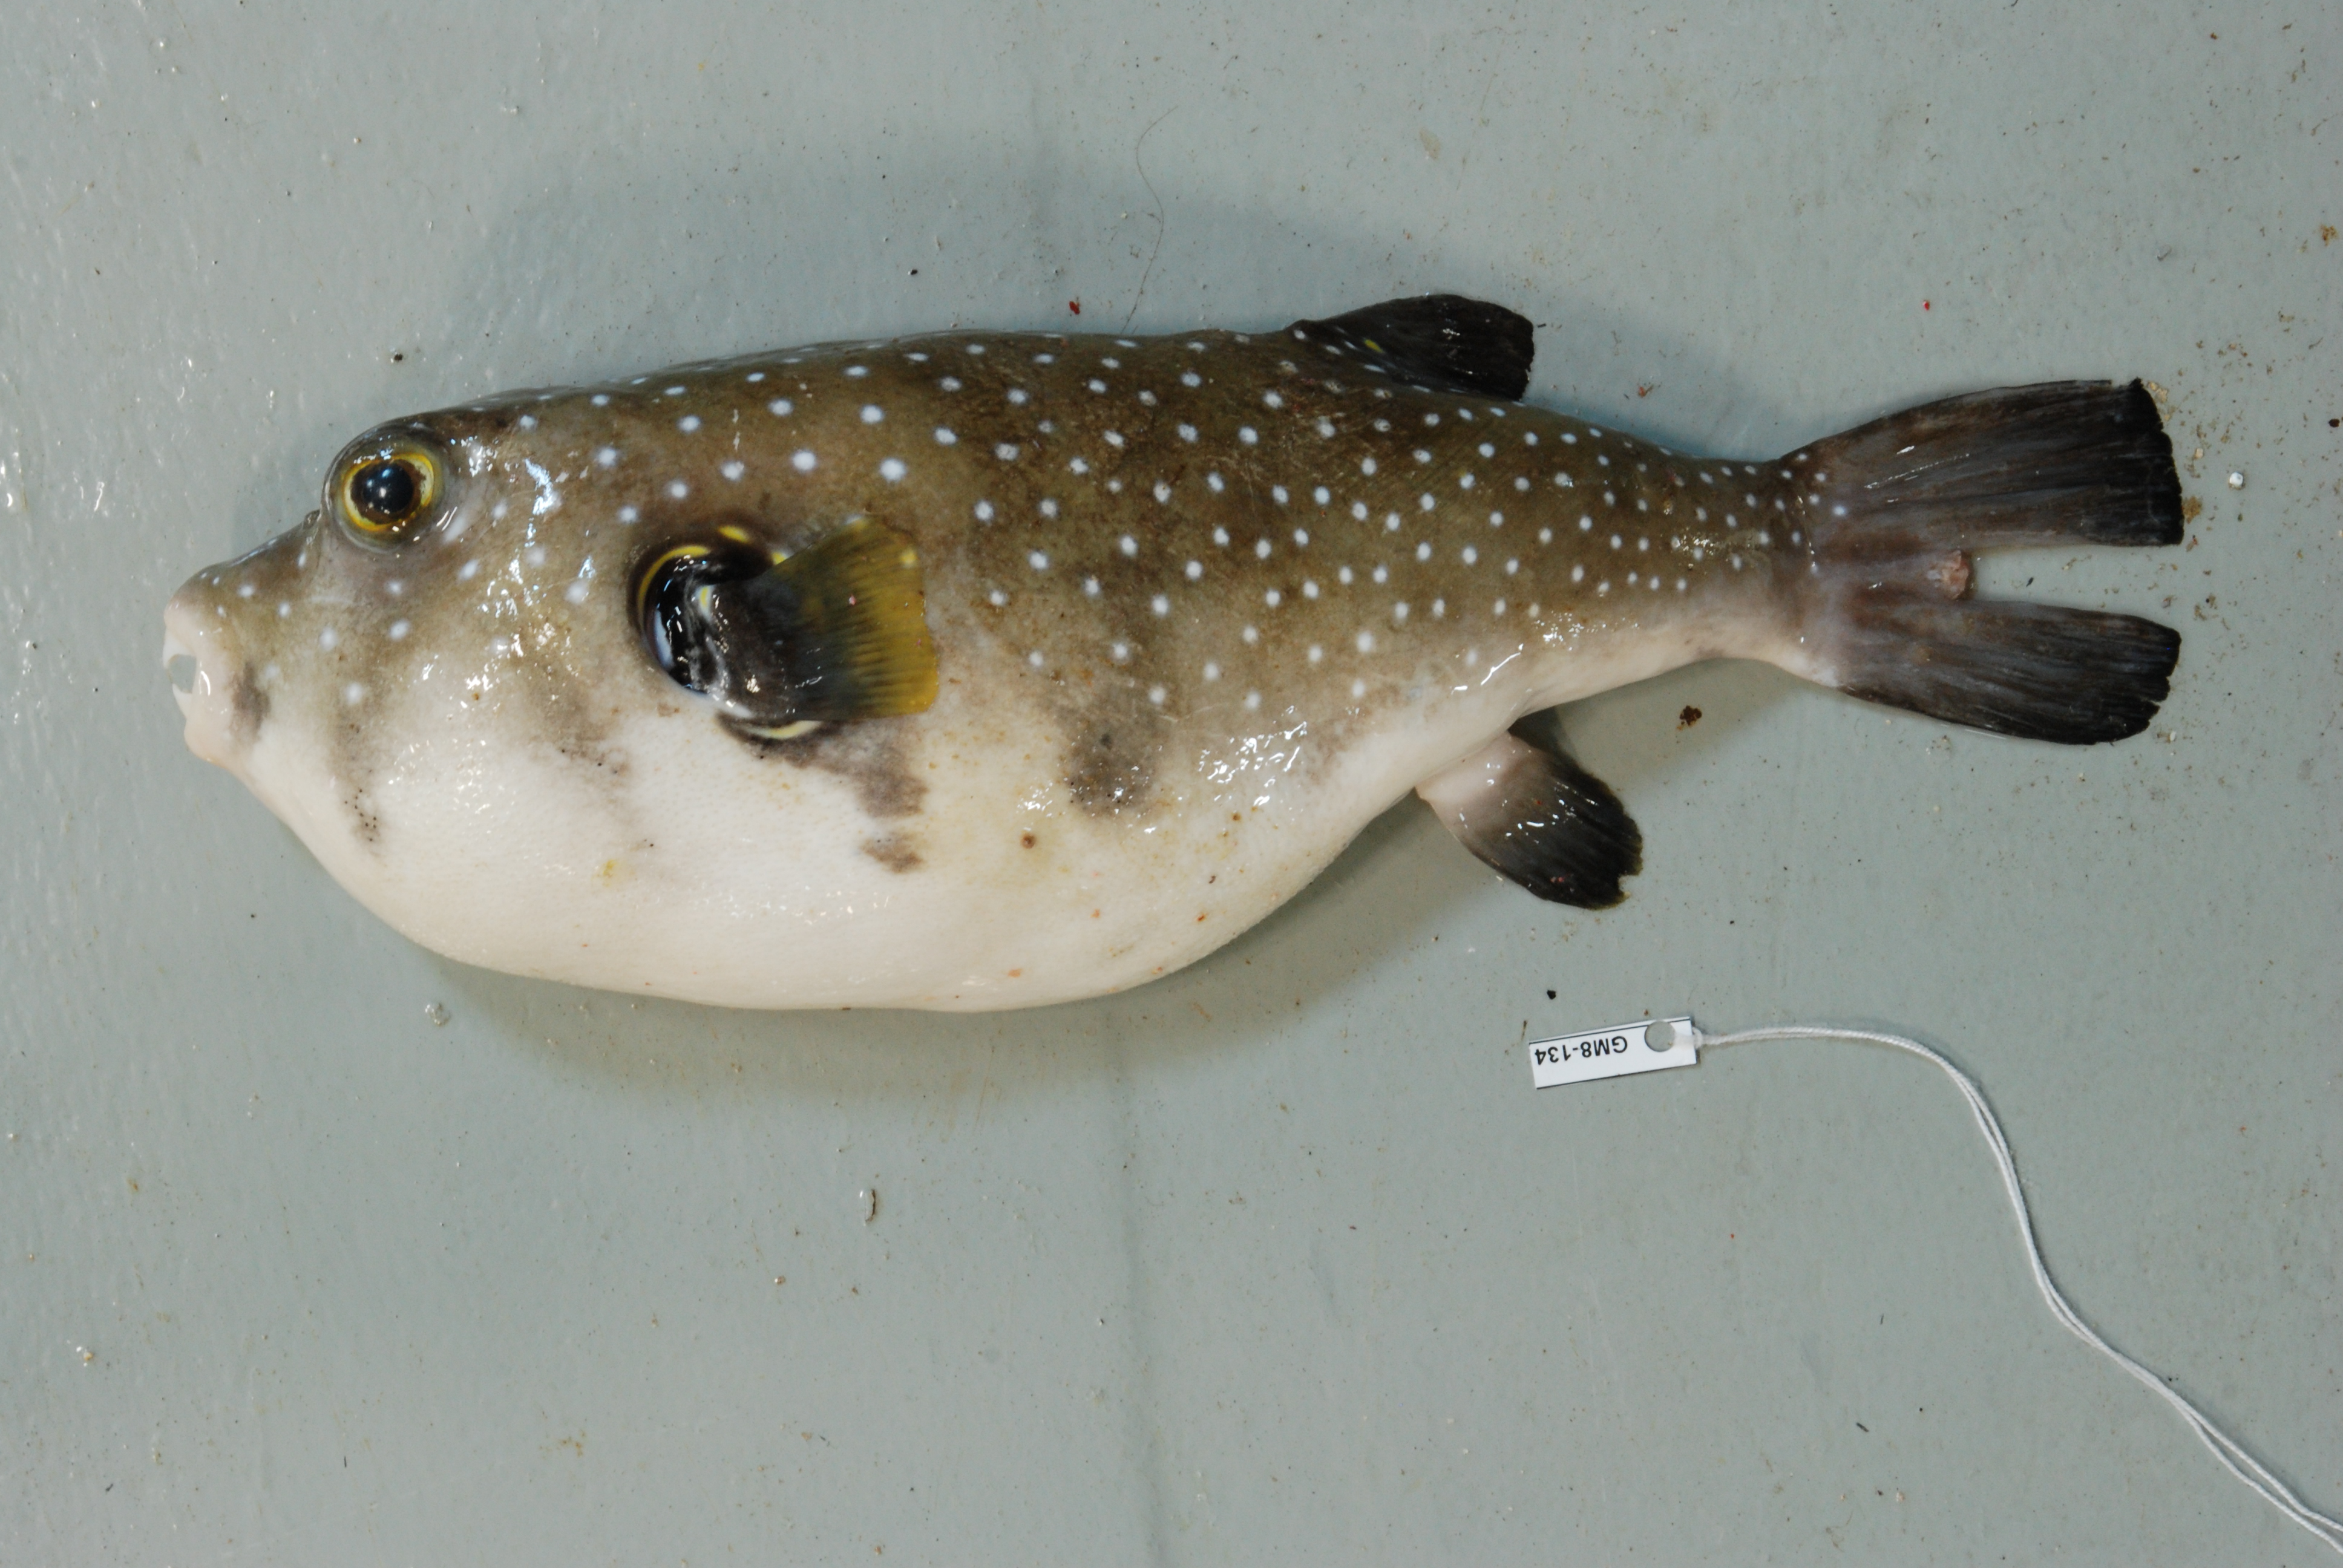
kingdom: Animalia
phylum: Chordata
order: Tetraodontiformes
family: Tetraodontidae
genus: Arothron
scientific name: Arothron hispidus
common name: Stripebelly puffer
